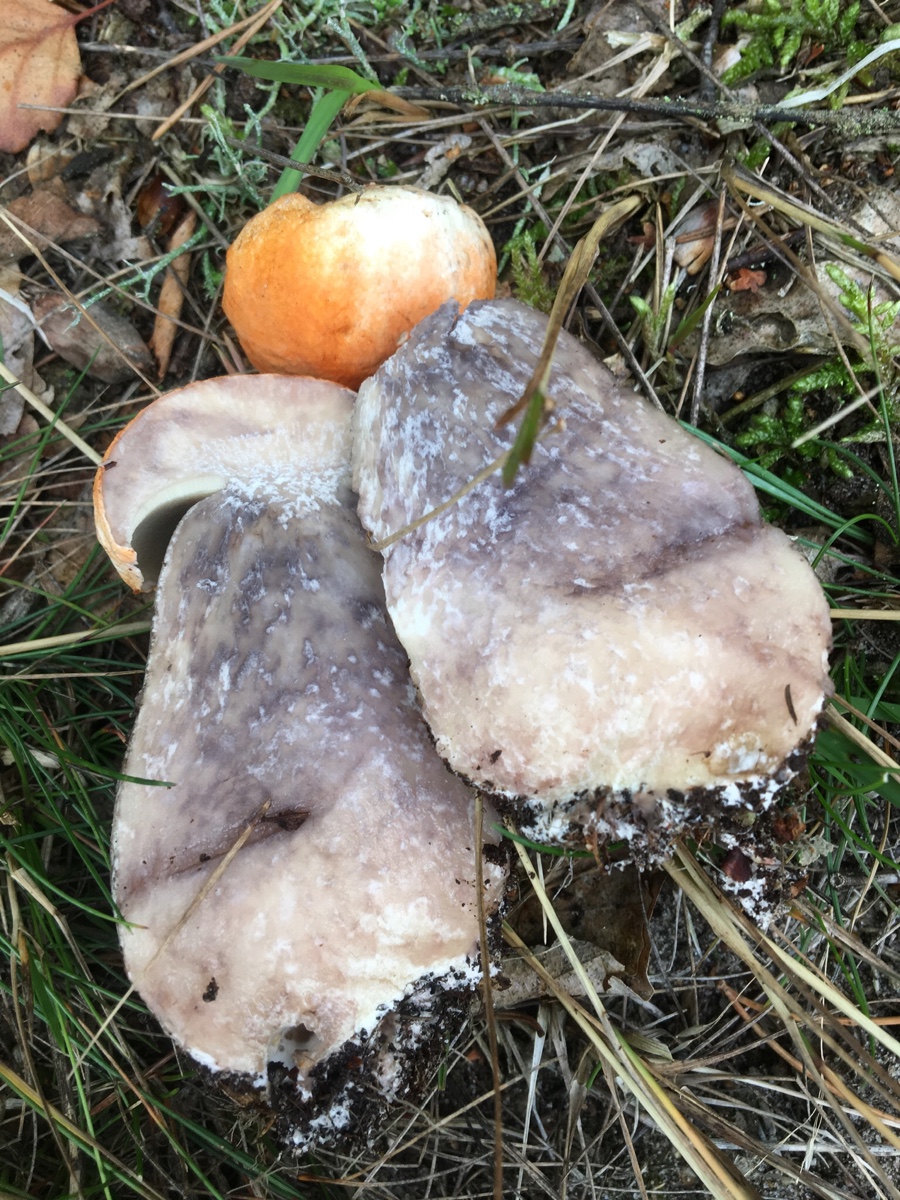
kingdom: Fungi
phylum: Basidiomycota
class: Agaricomycetes
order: Boletales
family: Boletaceae
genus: Leccinum
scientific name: Leccinum versipelle
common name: orange skælrørhat
